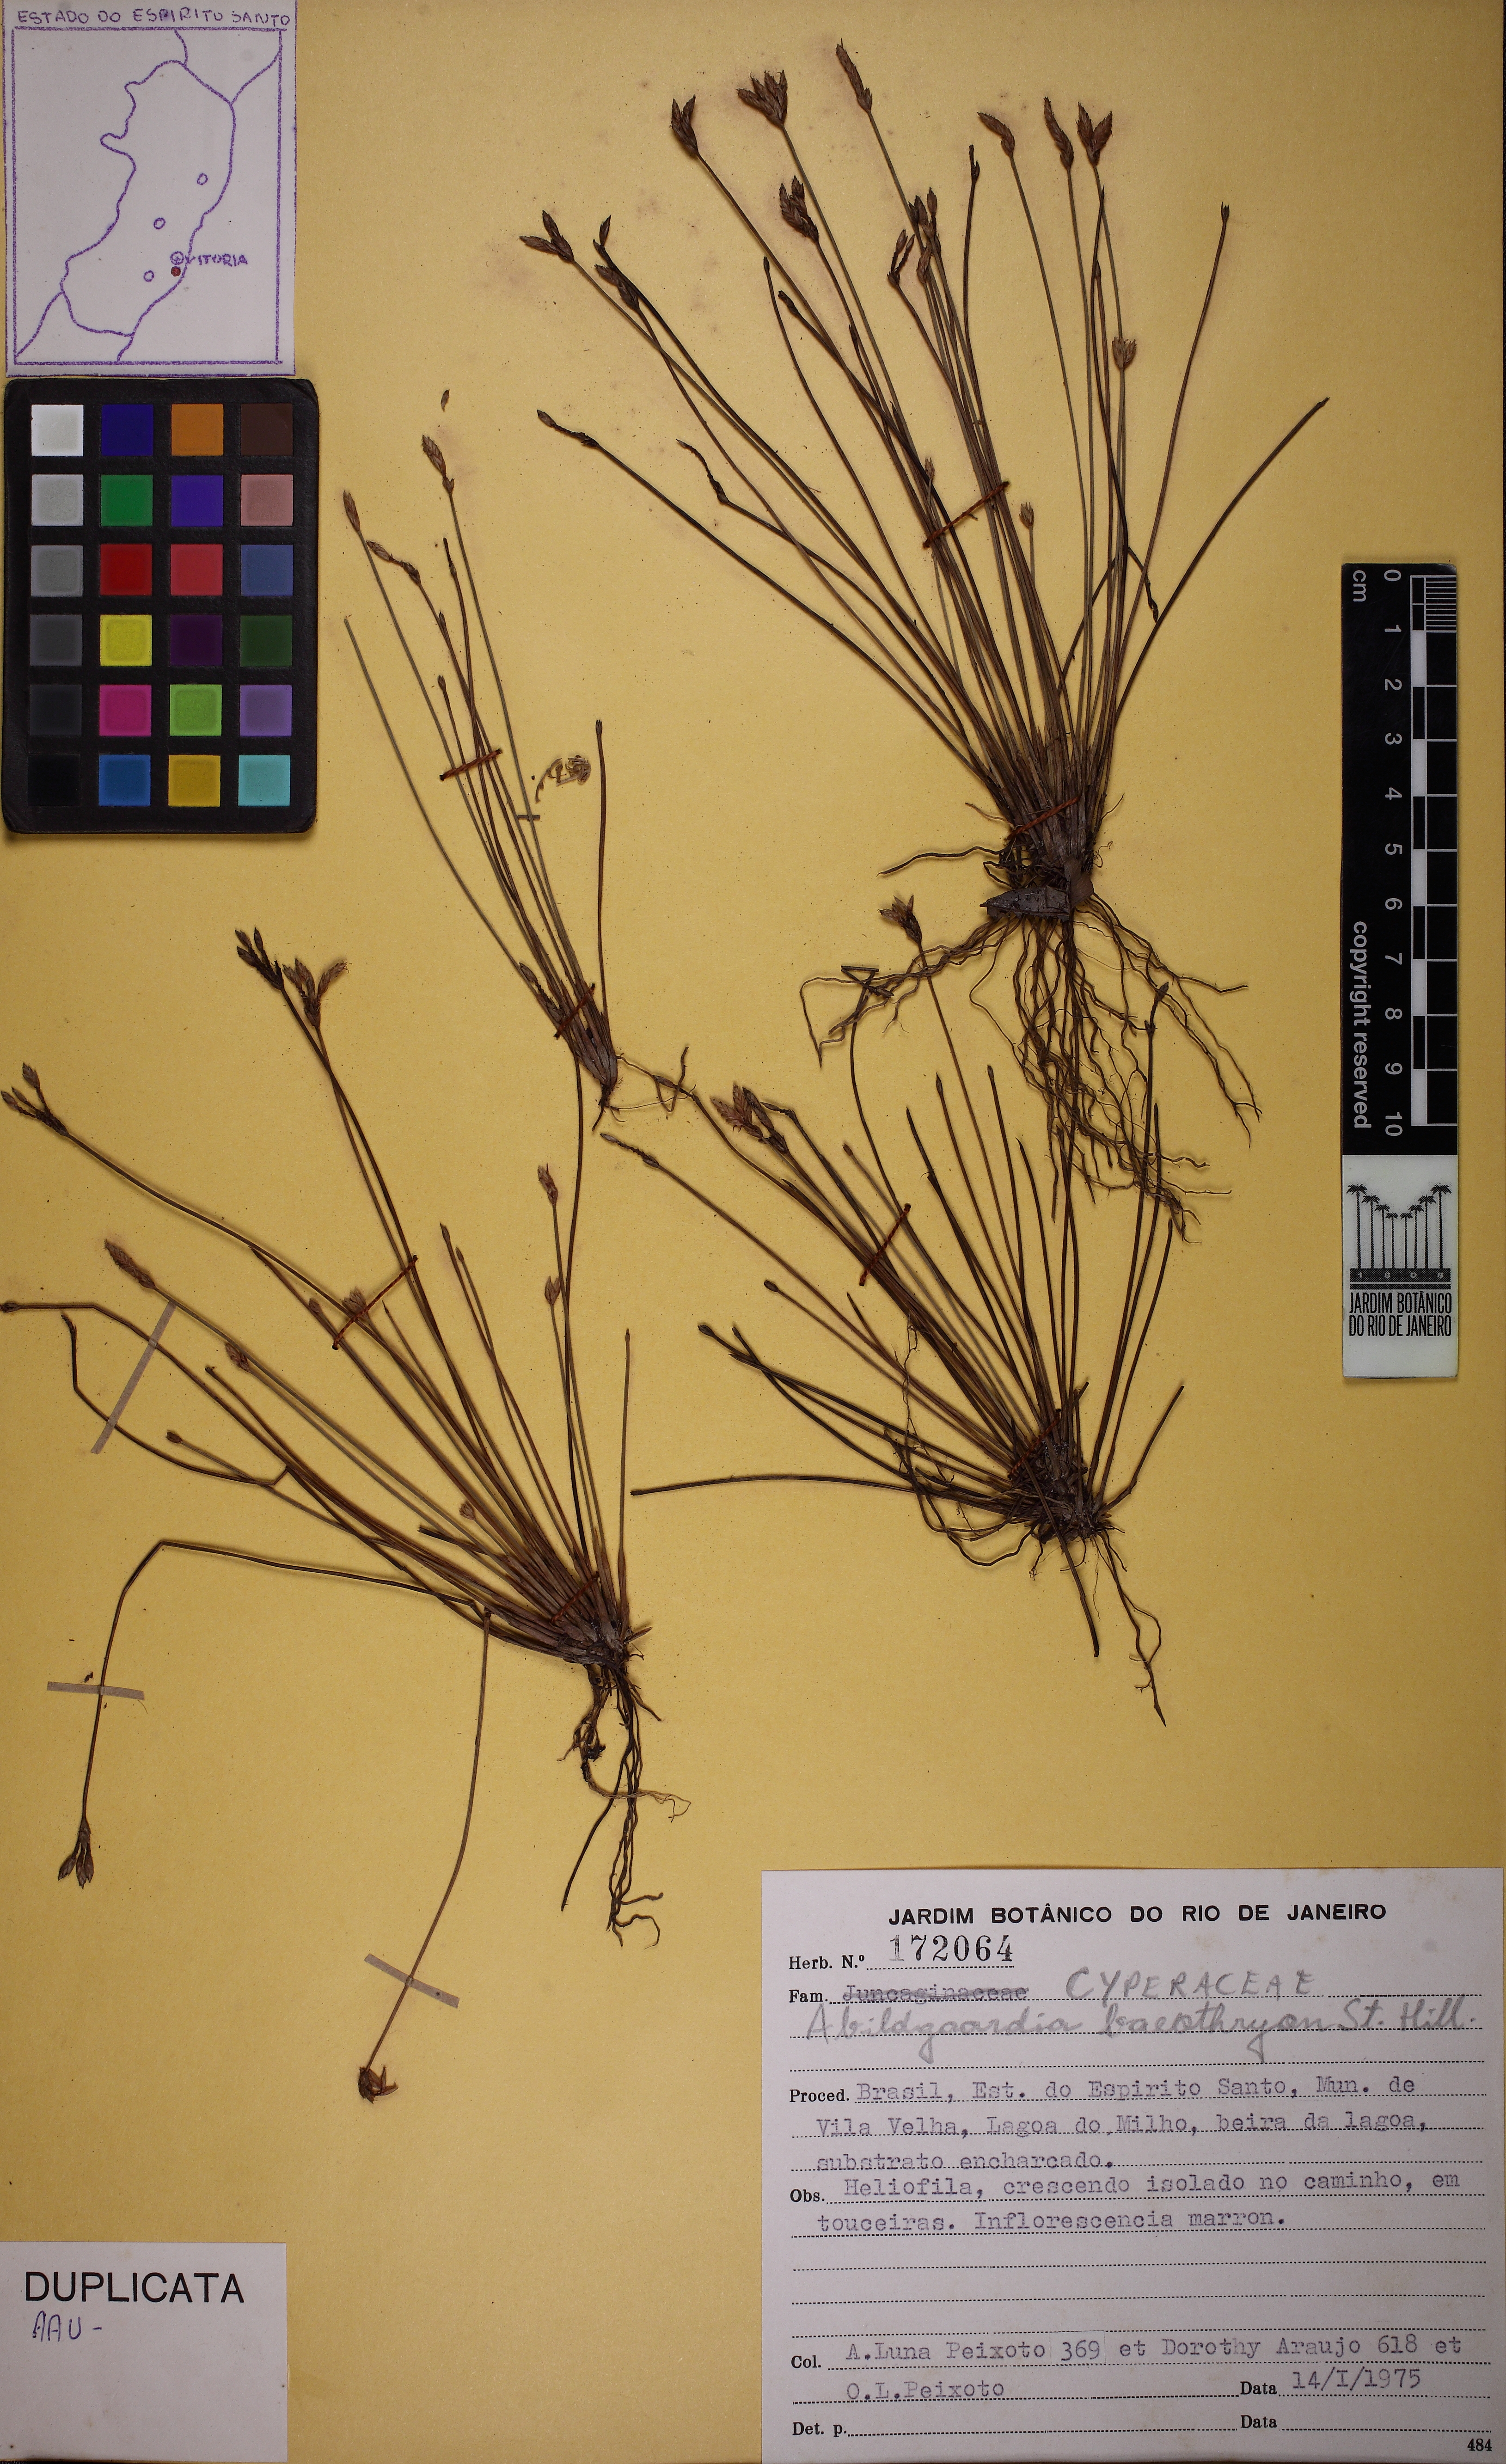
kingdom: Plantae
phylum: Tracheophyta
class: Liliopsida
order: Poales
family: Cyperaceae
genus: Fimbristylis
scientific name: Fimbristylis bahiensis
